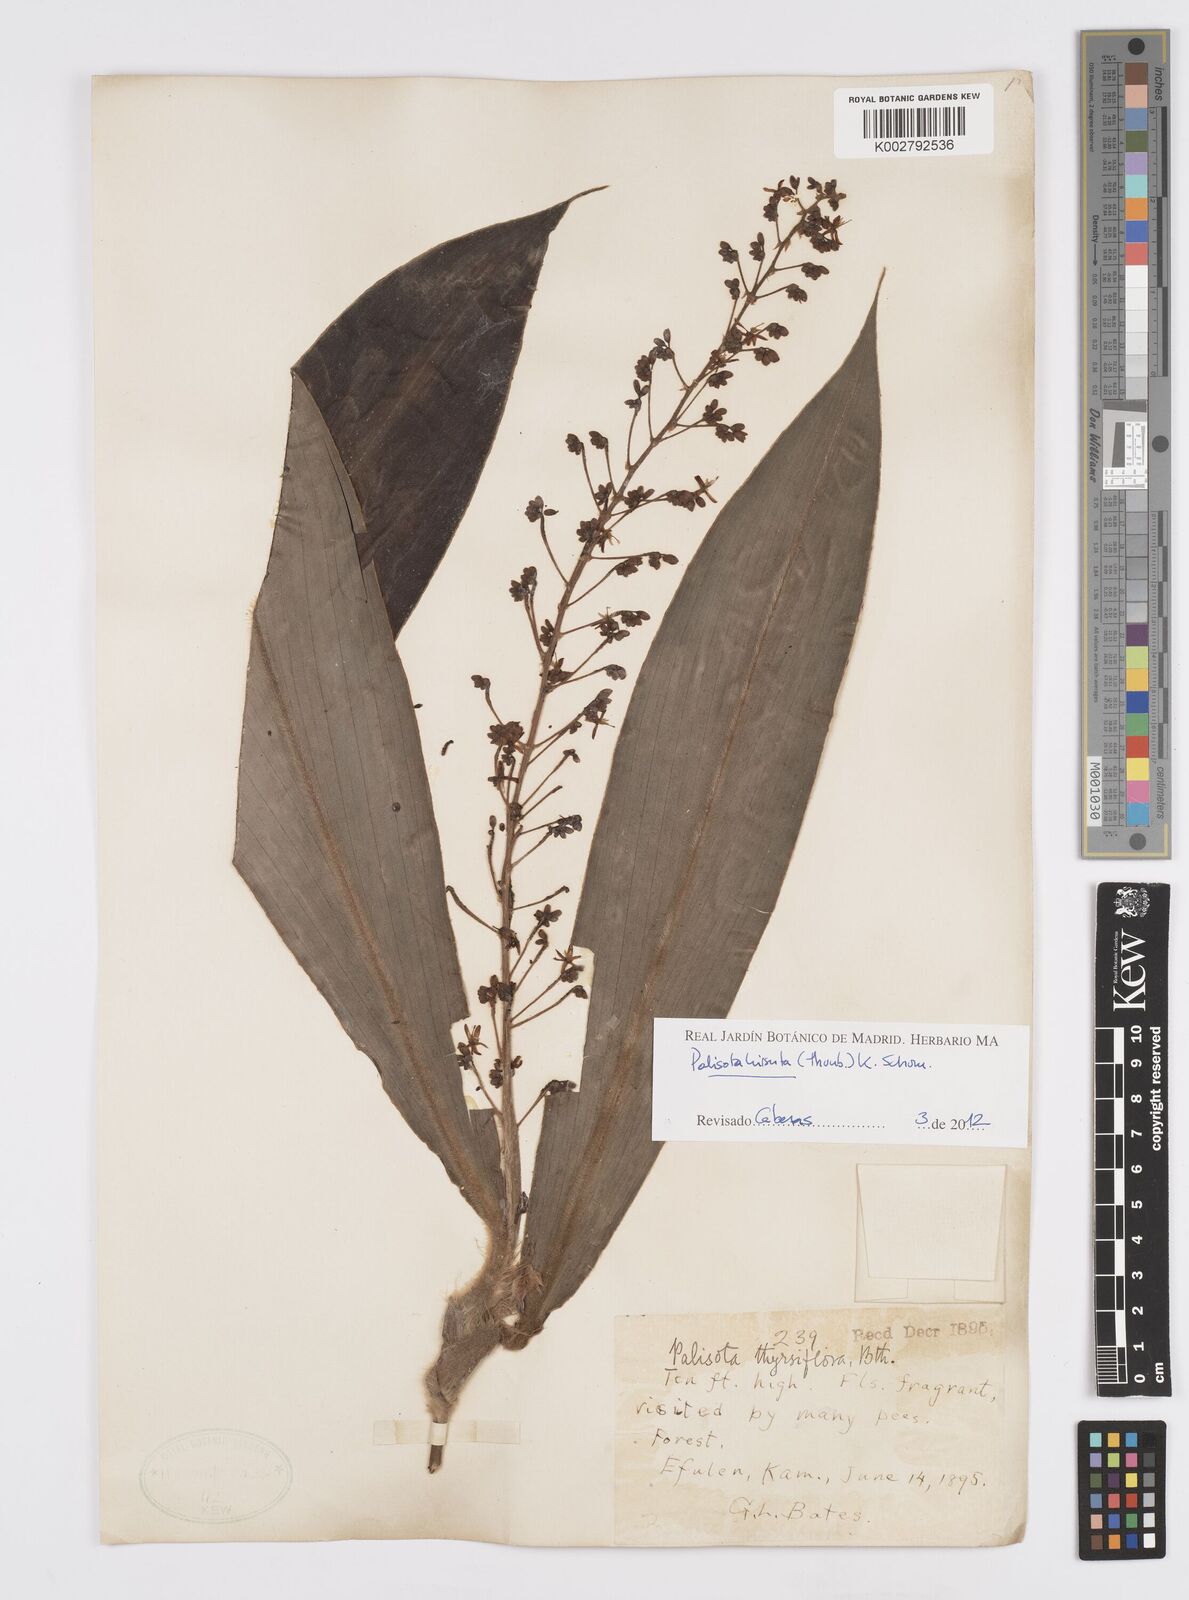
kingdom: Plantae
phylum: Tracheophyta
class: Liliopsida
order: Commelinales
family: Commelinaceae
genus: Palisota
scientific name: Palisota hirsuta
